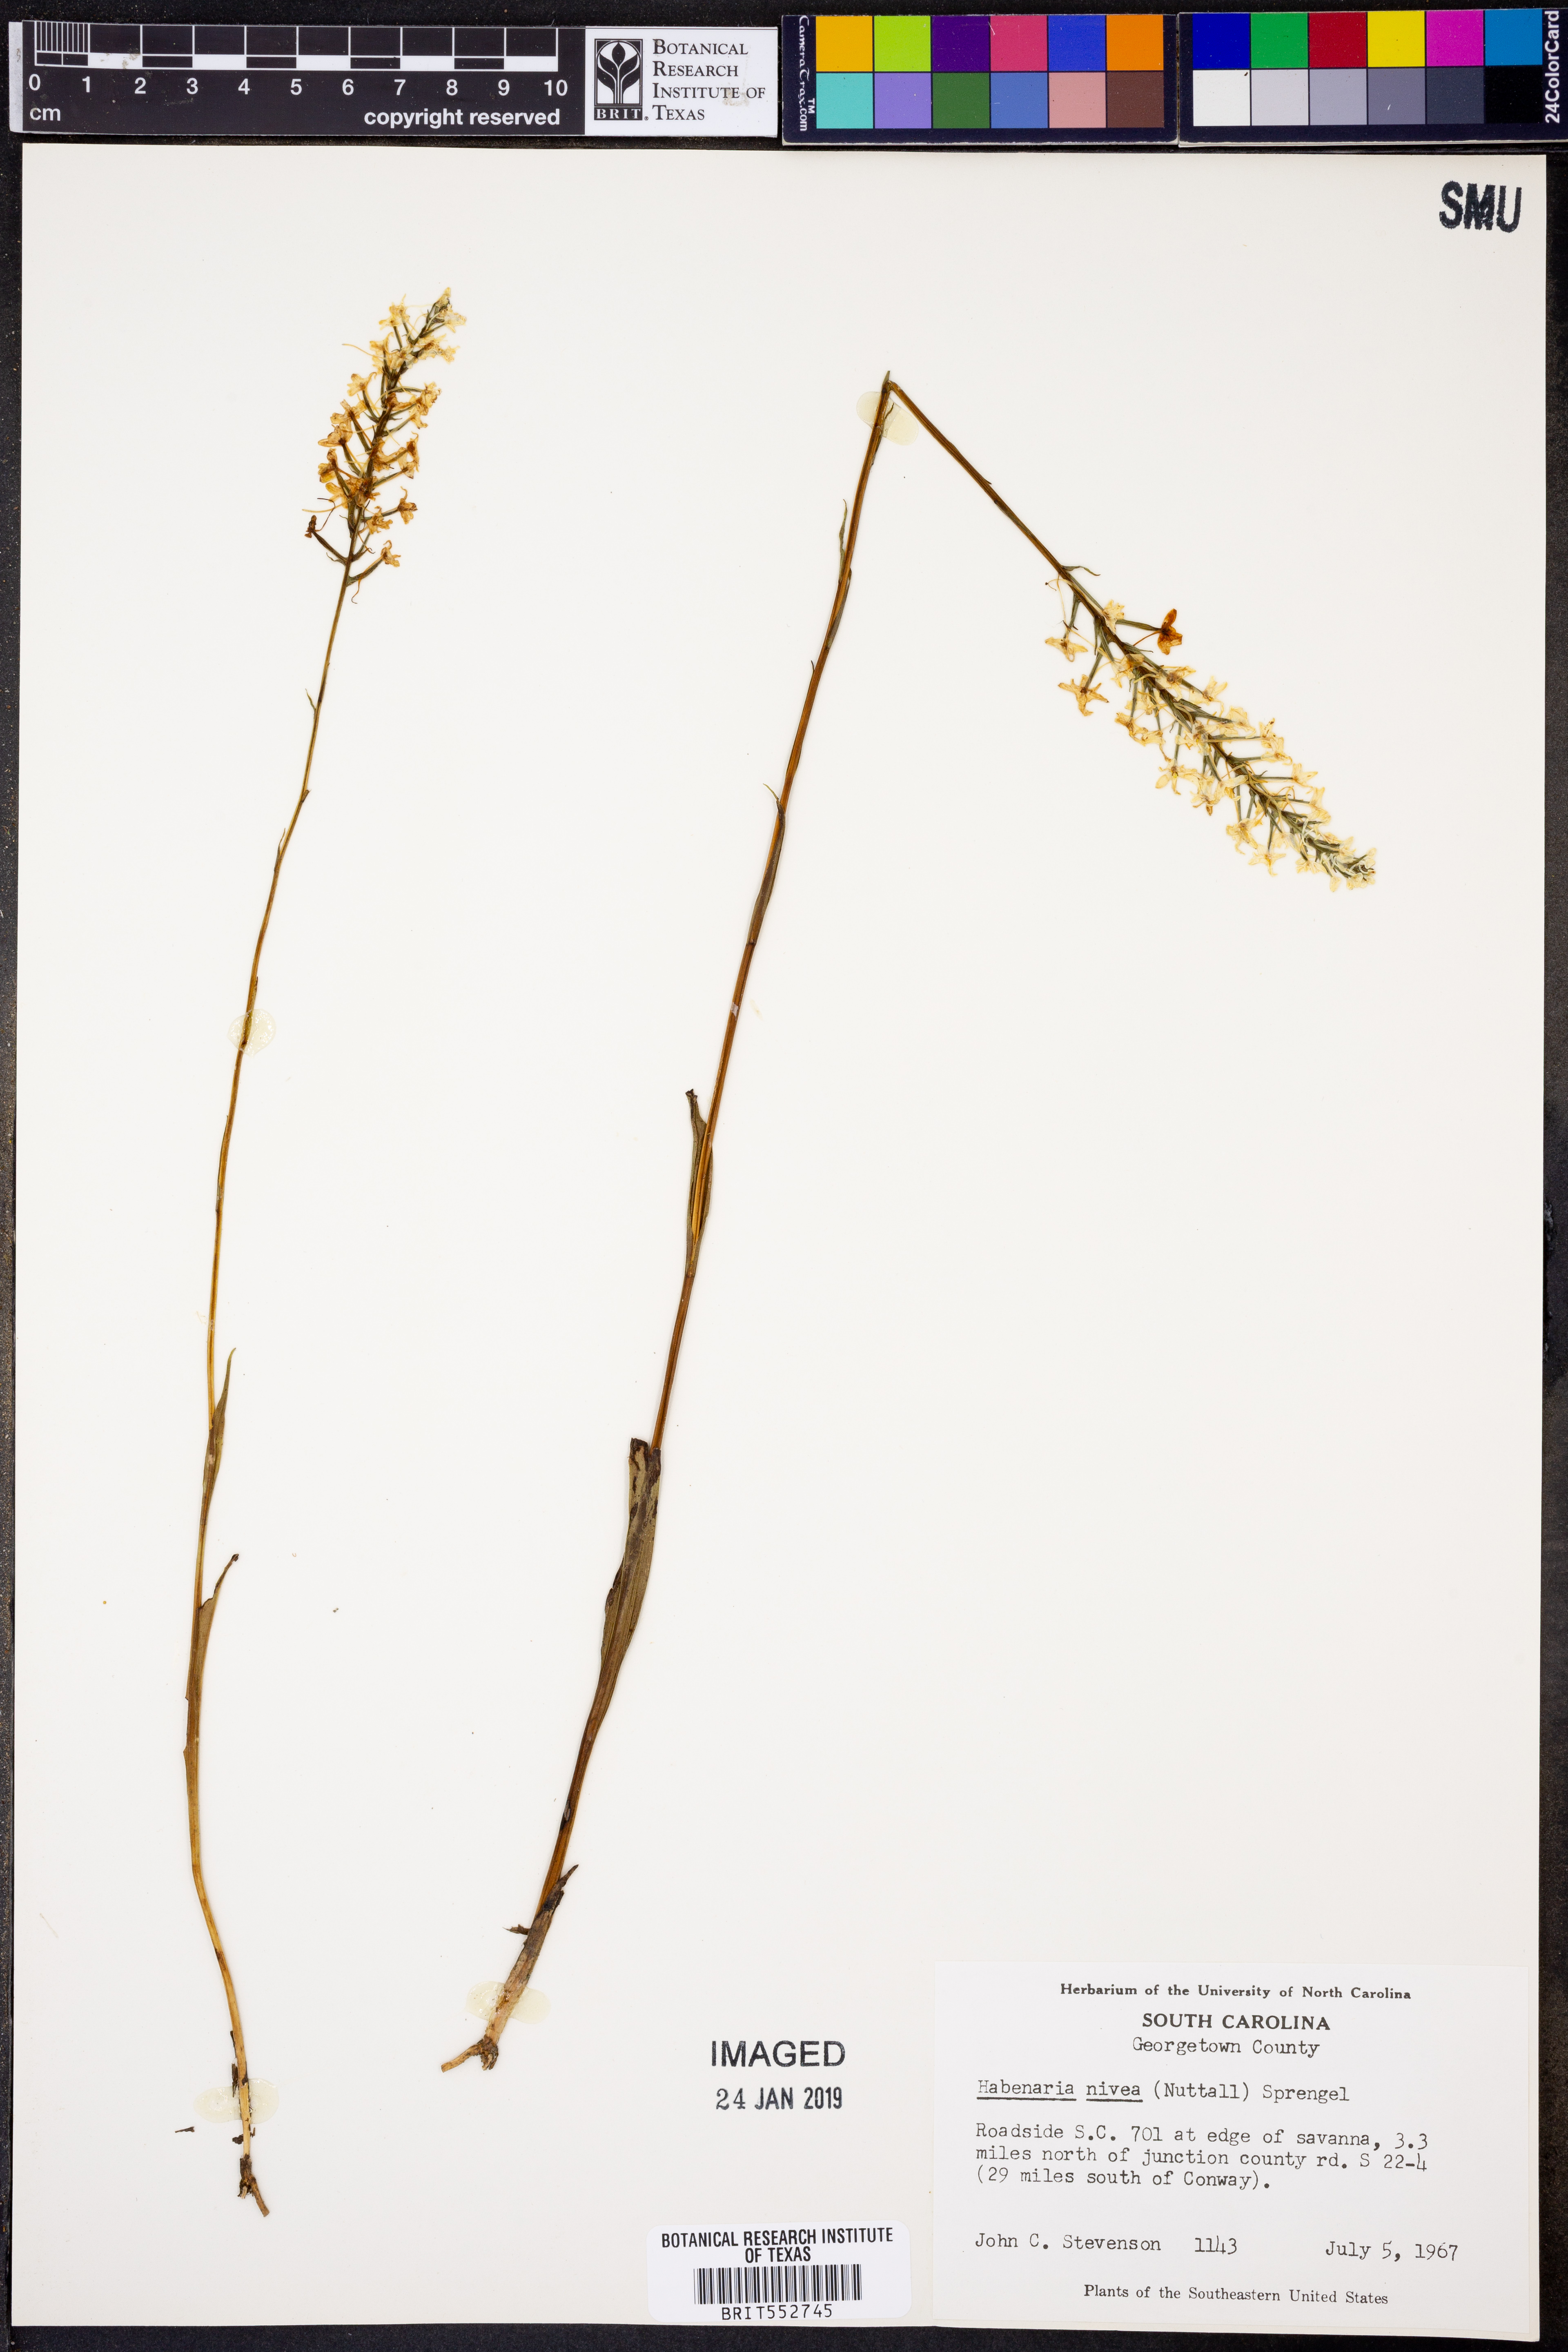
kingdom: Plantae
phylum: Tracheophyta
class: Liliopsida
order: Asparagales
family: Orchidaceae
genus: Platanthera
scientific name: Platanthera nivea
